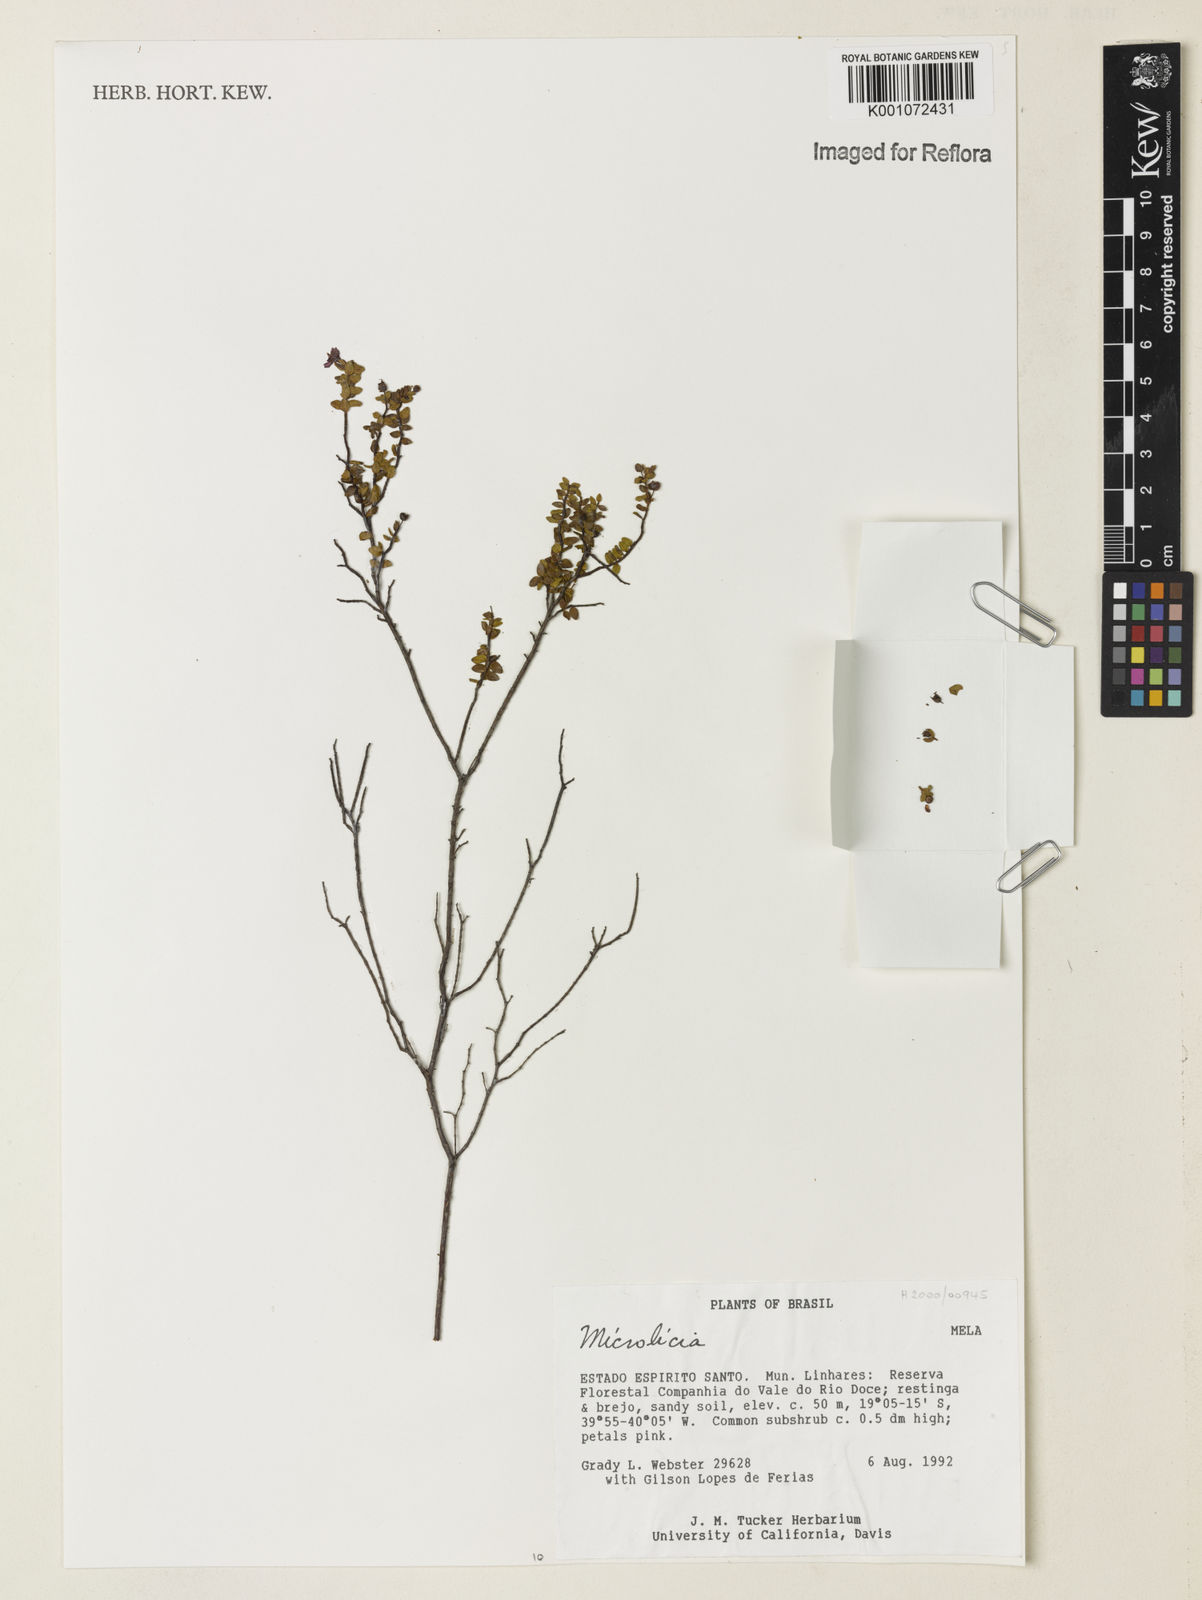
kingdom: Plantae
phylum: Tracheophyta
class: Magnoliopsida
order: Myrtales
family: Melastomataceae
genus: Microlicia
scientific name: Microlicia
